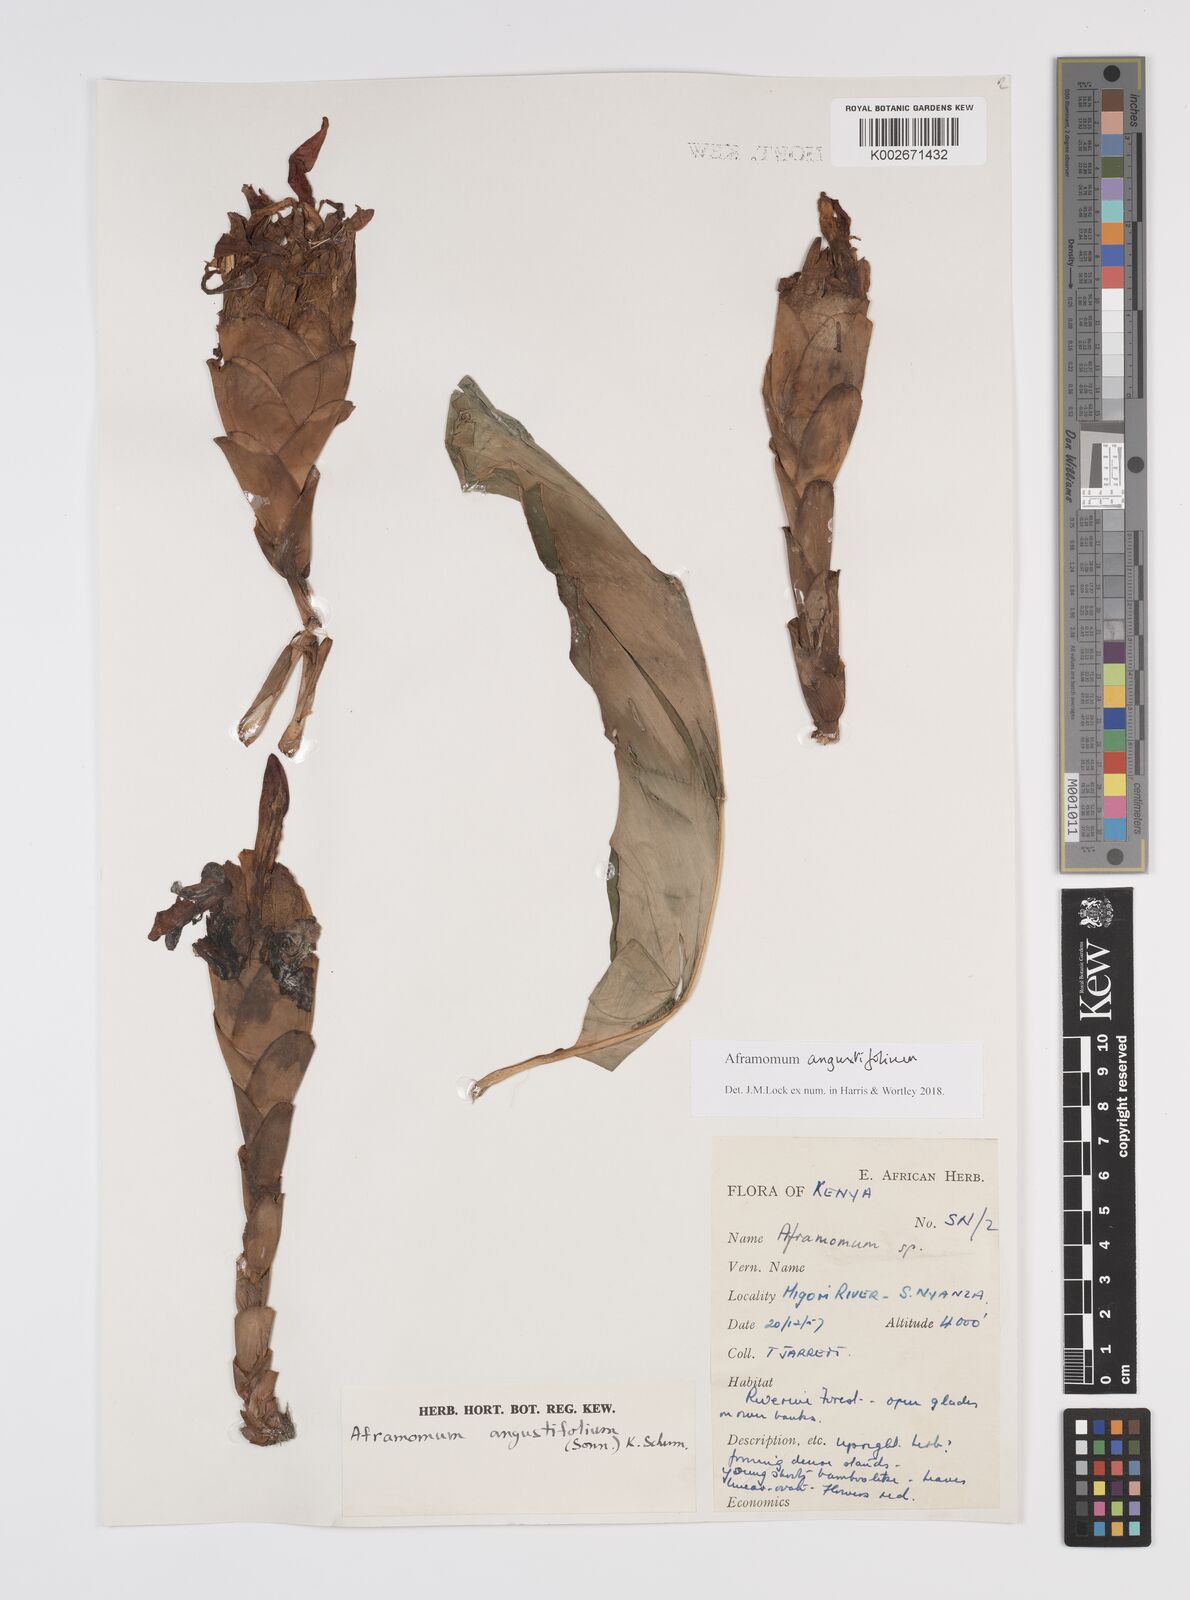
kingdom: Plantae
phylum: Tracheophyta
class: Liliopsida
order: Zingiberales
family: Zingiberaceae
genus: Aframomum
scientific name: Aframomum angustifolium
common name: Guinea grains
